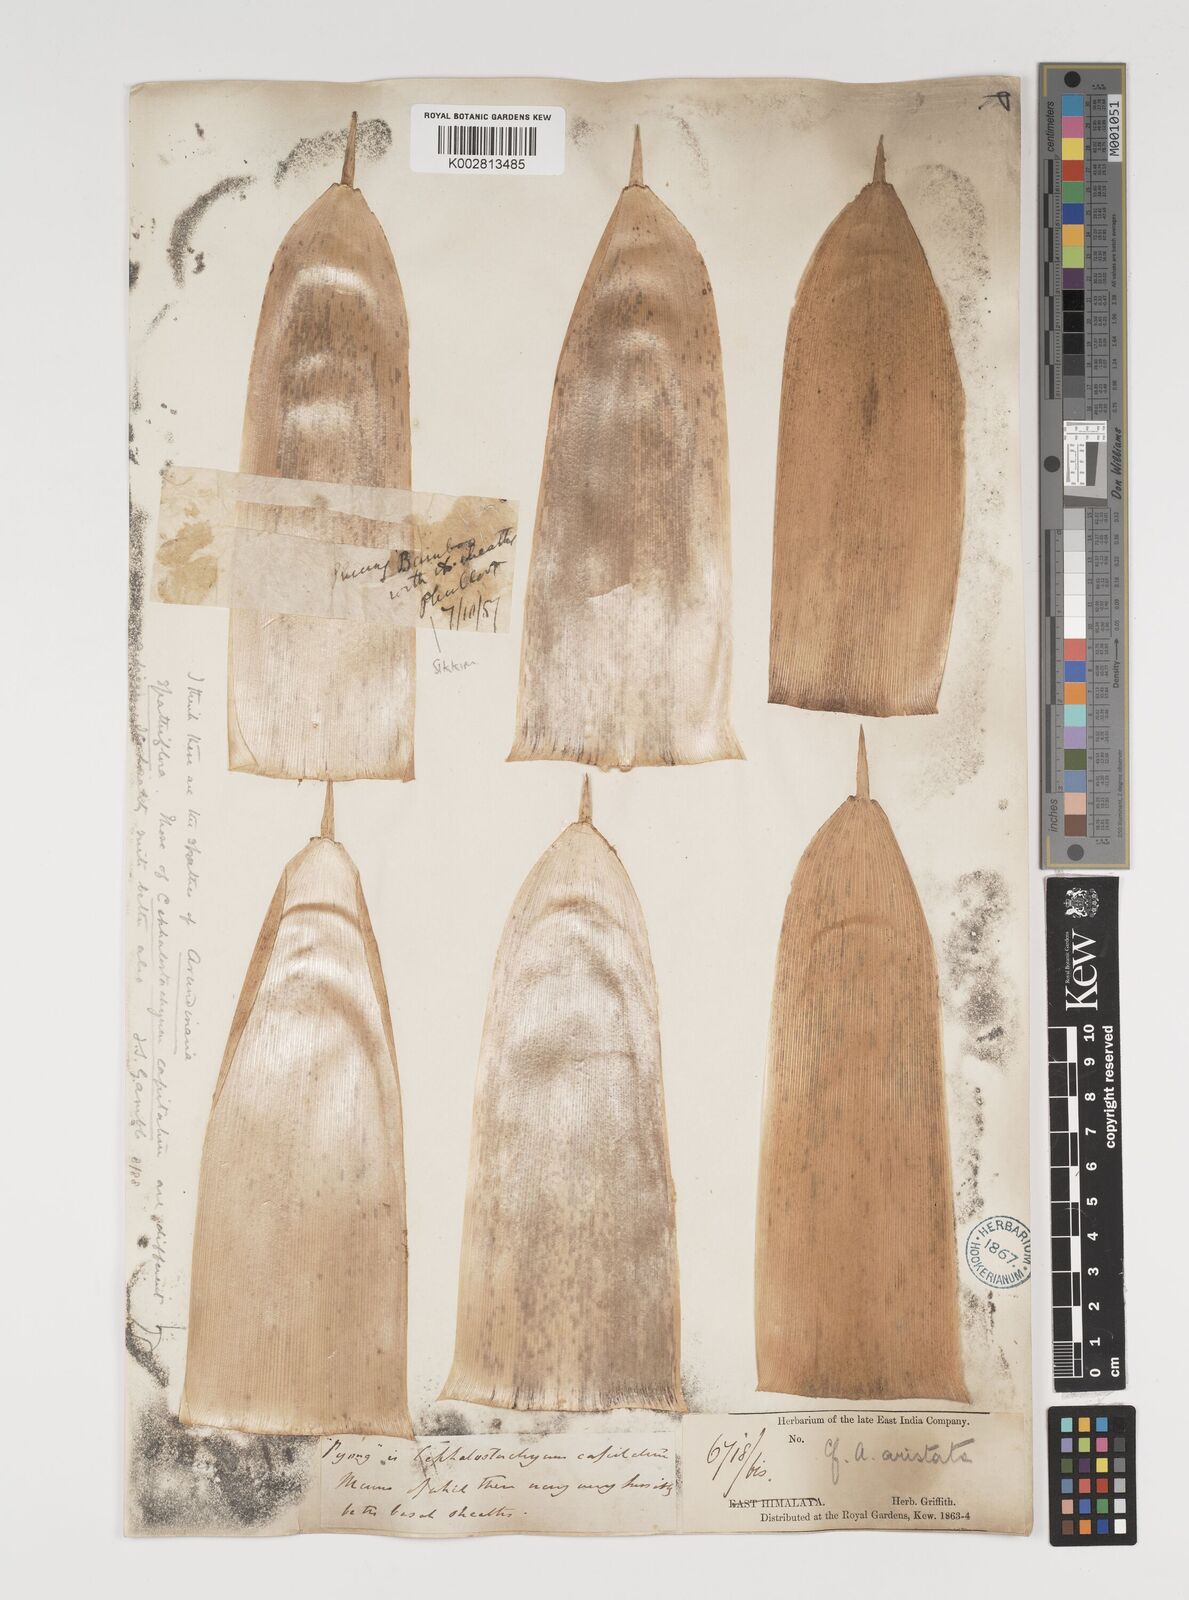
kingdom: Plantae
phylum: Tracheophyta
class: Liliopsida
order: Poales
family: Poaceae
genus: Thamnocalamus
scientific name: Thamnocalamus spathiflorus
